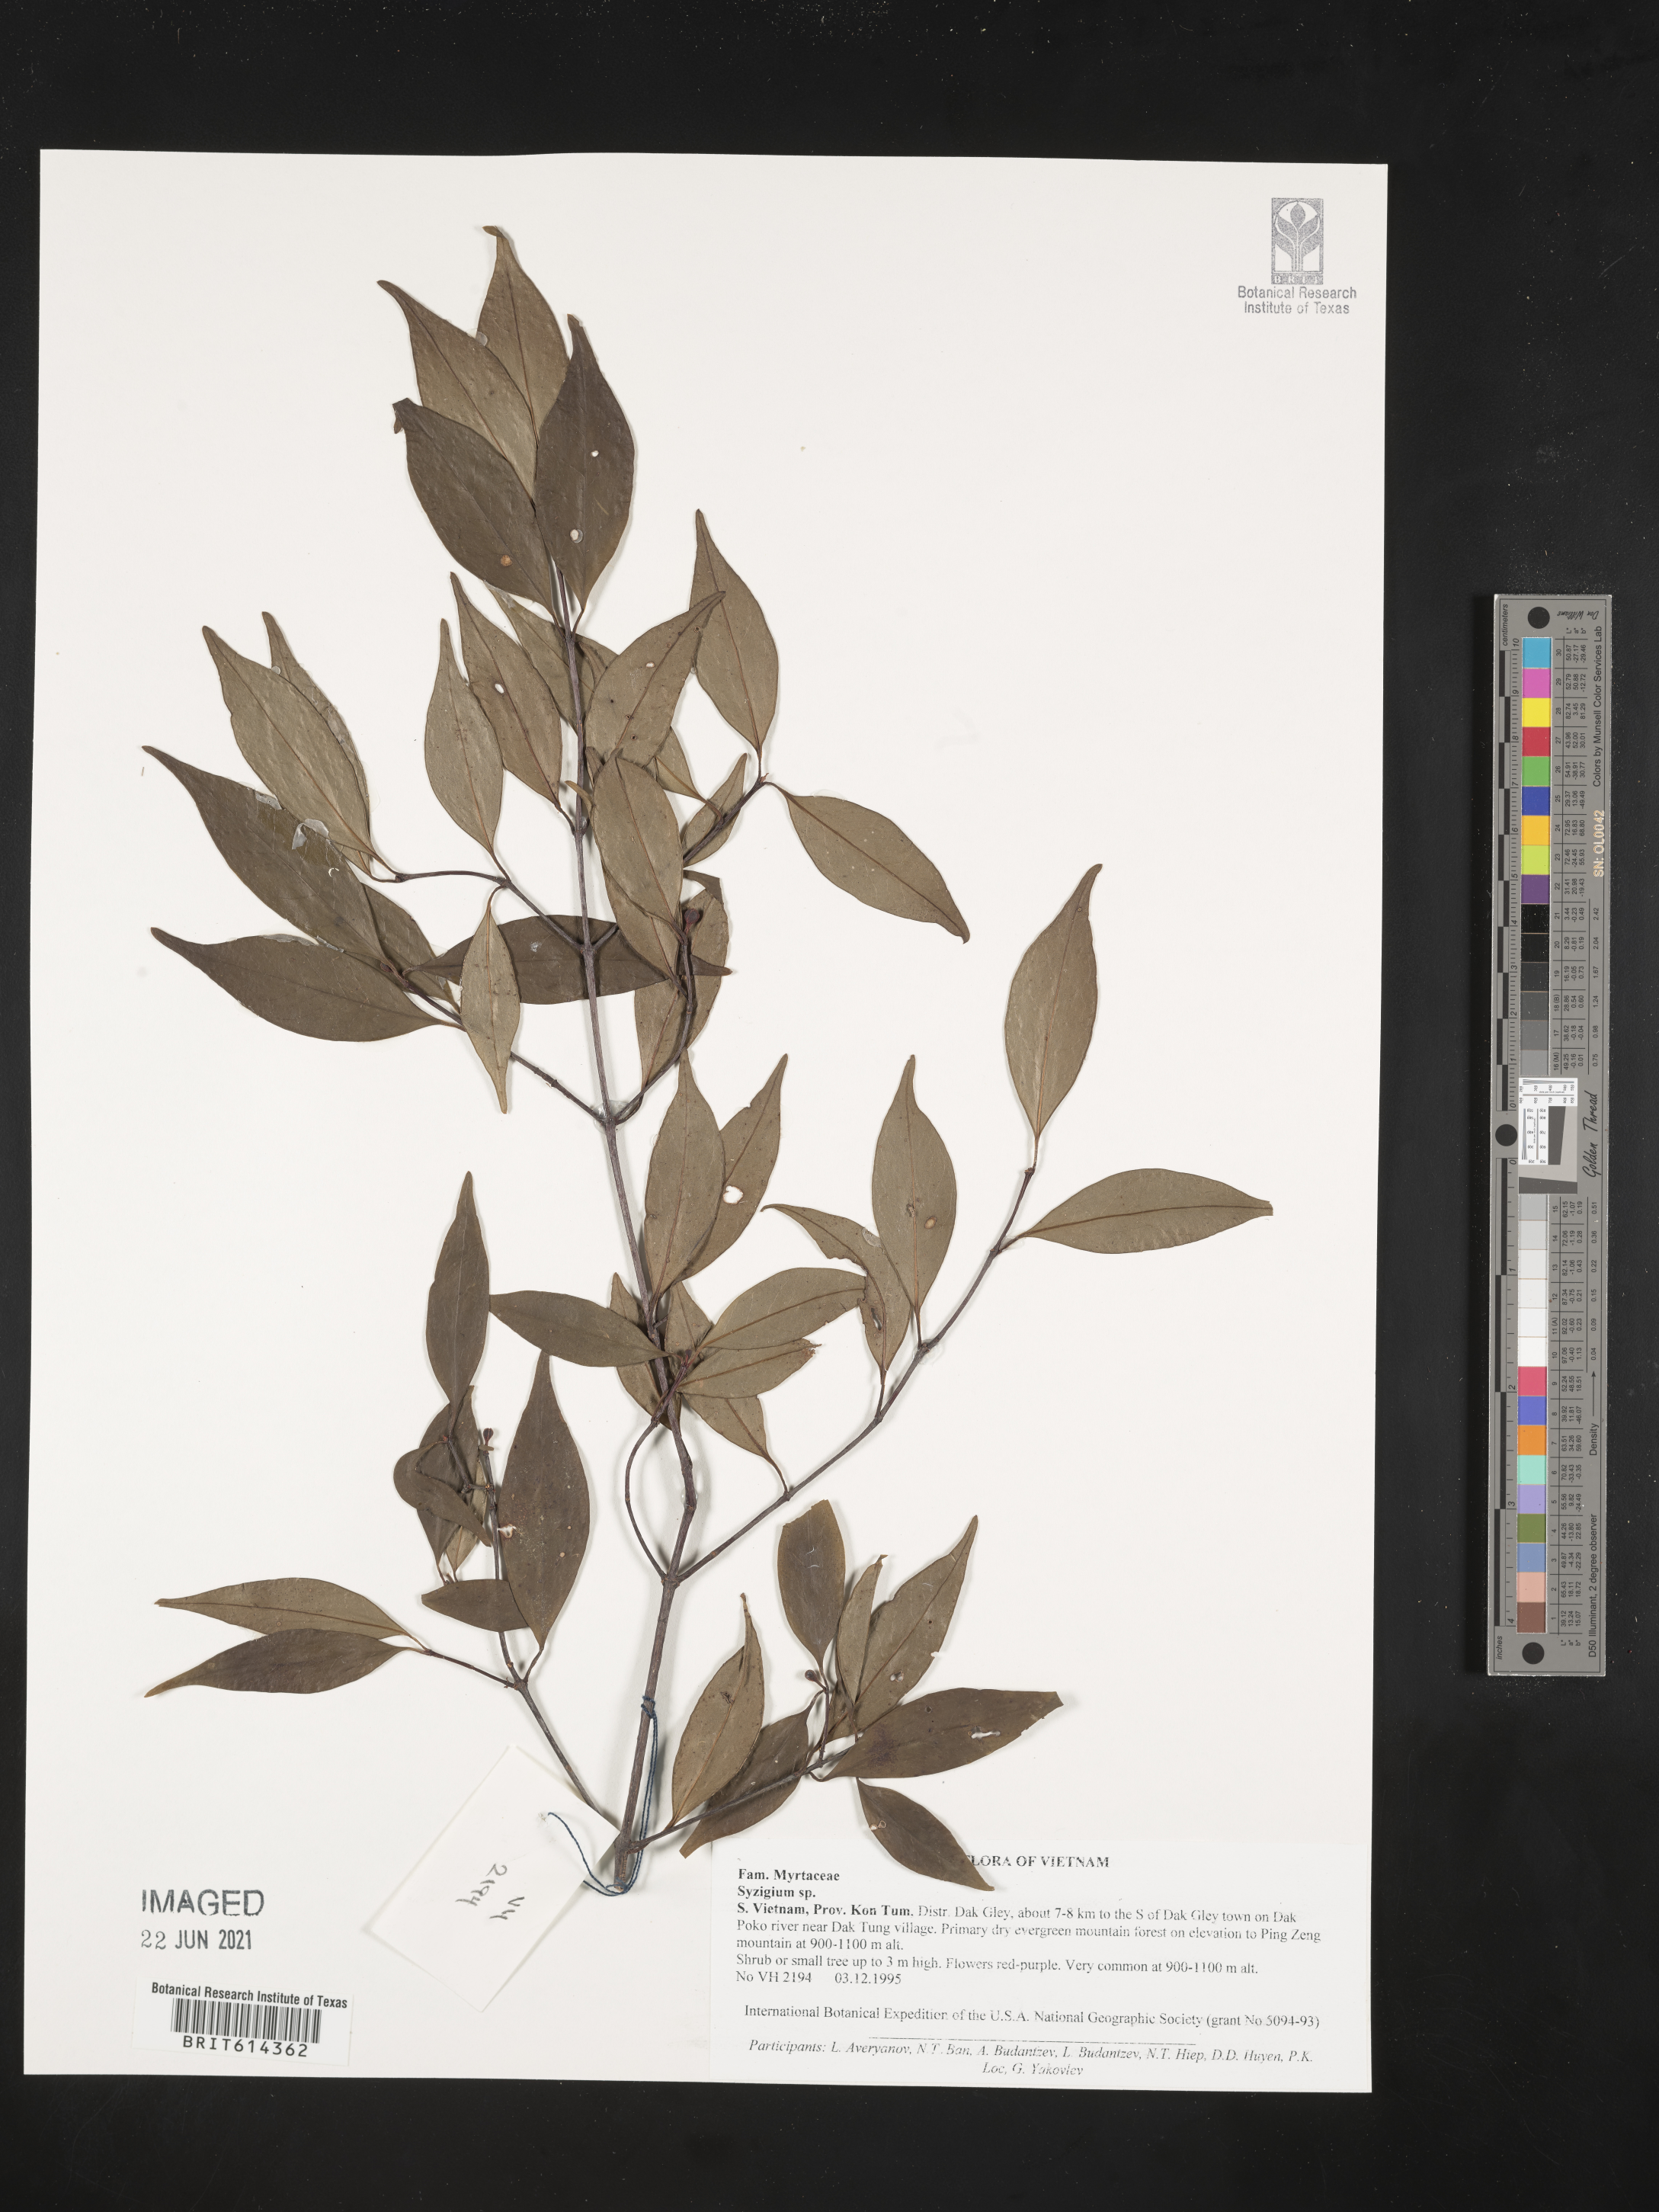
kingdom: Plantae
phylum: Tracheophyta
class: Magnoliopsida
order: Myrtales
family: Myrtaceae
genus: Syzigium
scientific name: Syzigium
